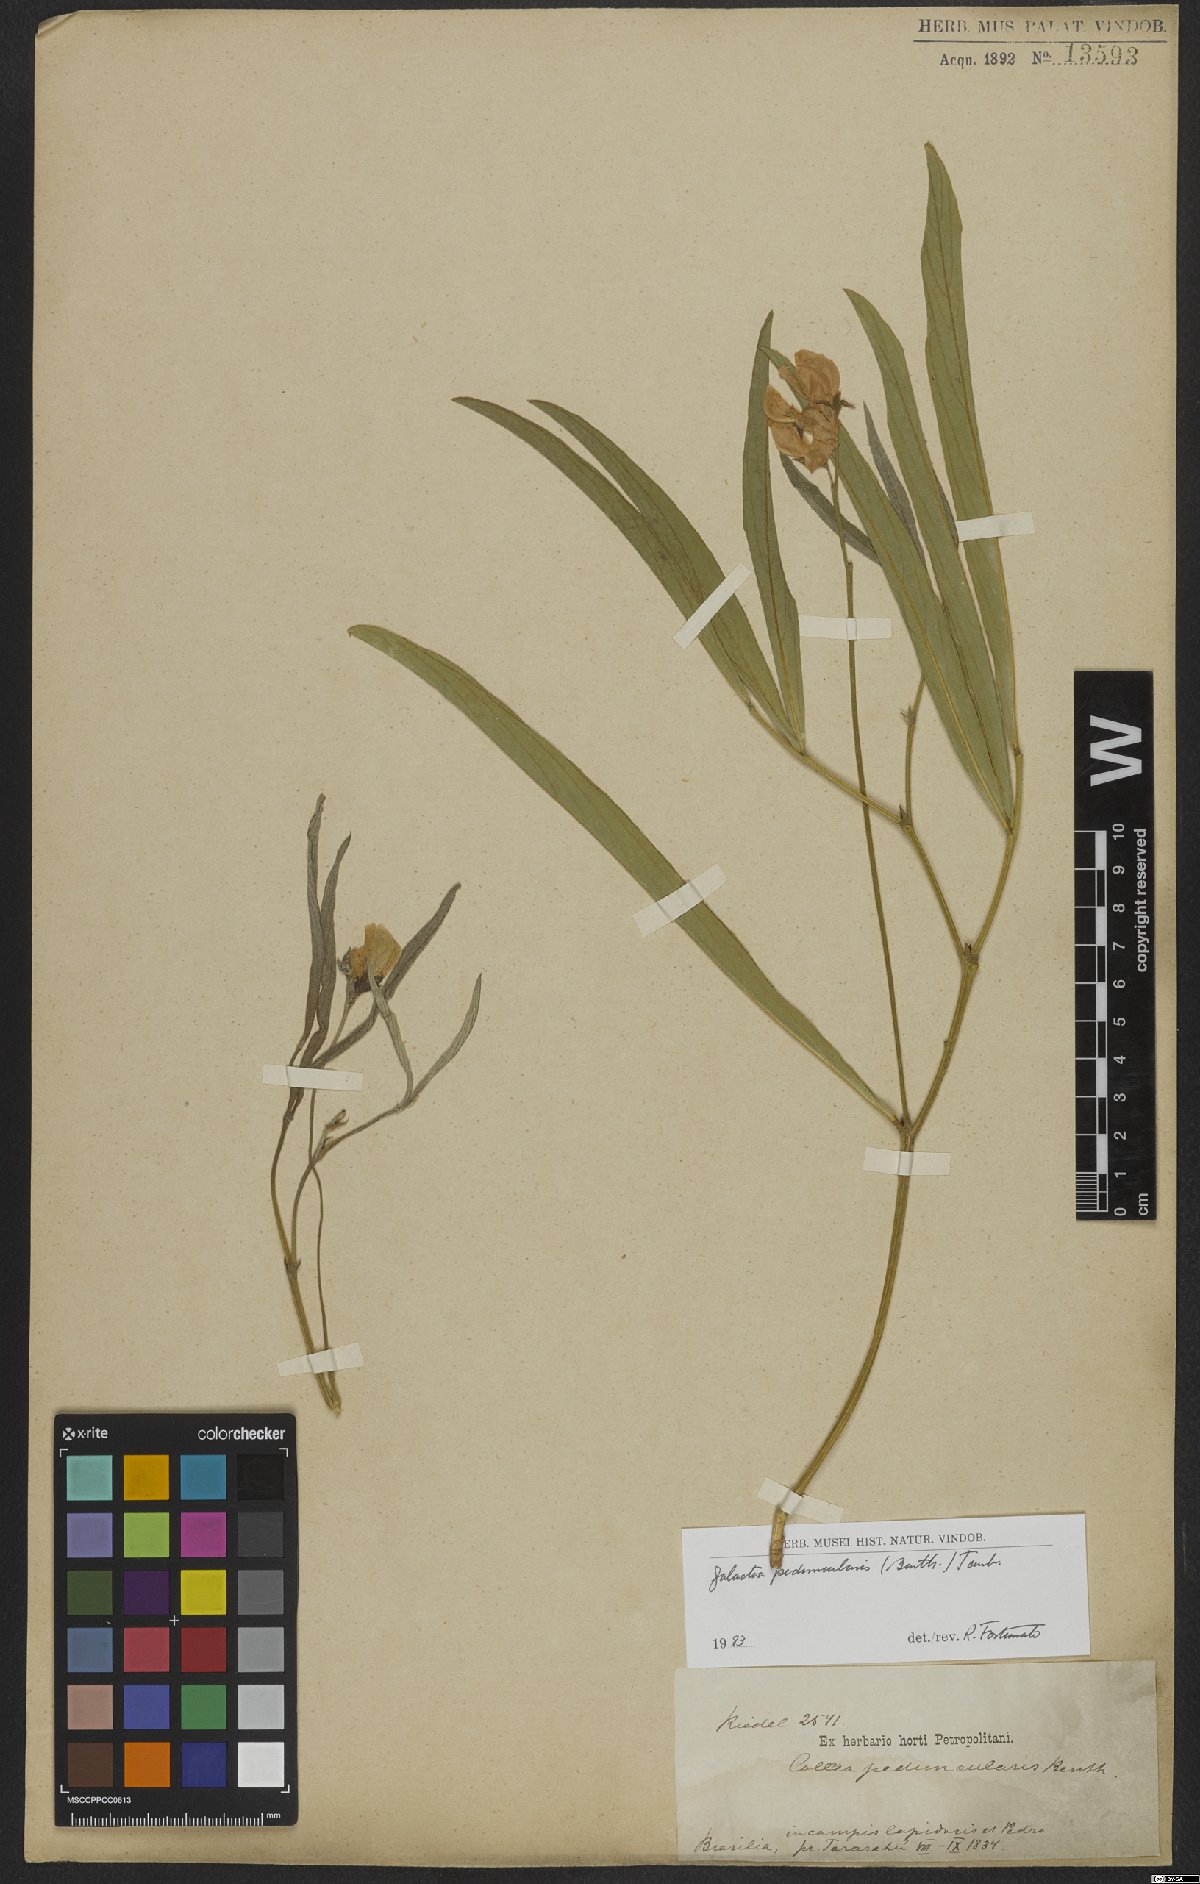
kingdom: Plantae
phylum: Tracheophyta
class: Magnoliopsida
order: Fabales
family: Fabaceae
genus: Cerradicola
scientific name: Cerradicola peduncularis
